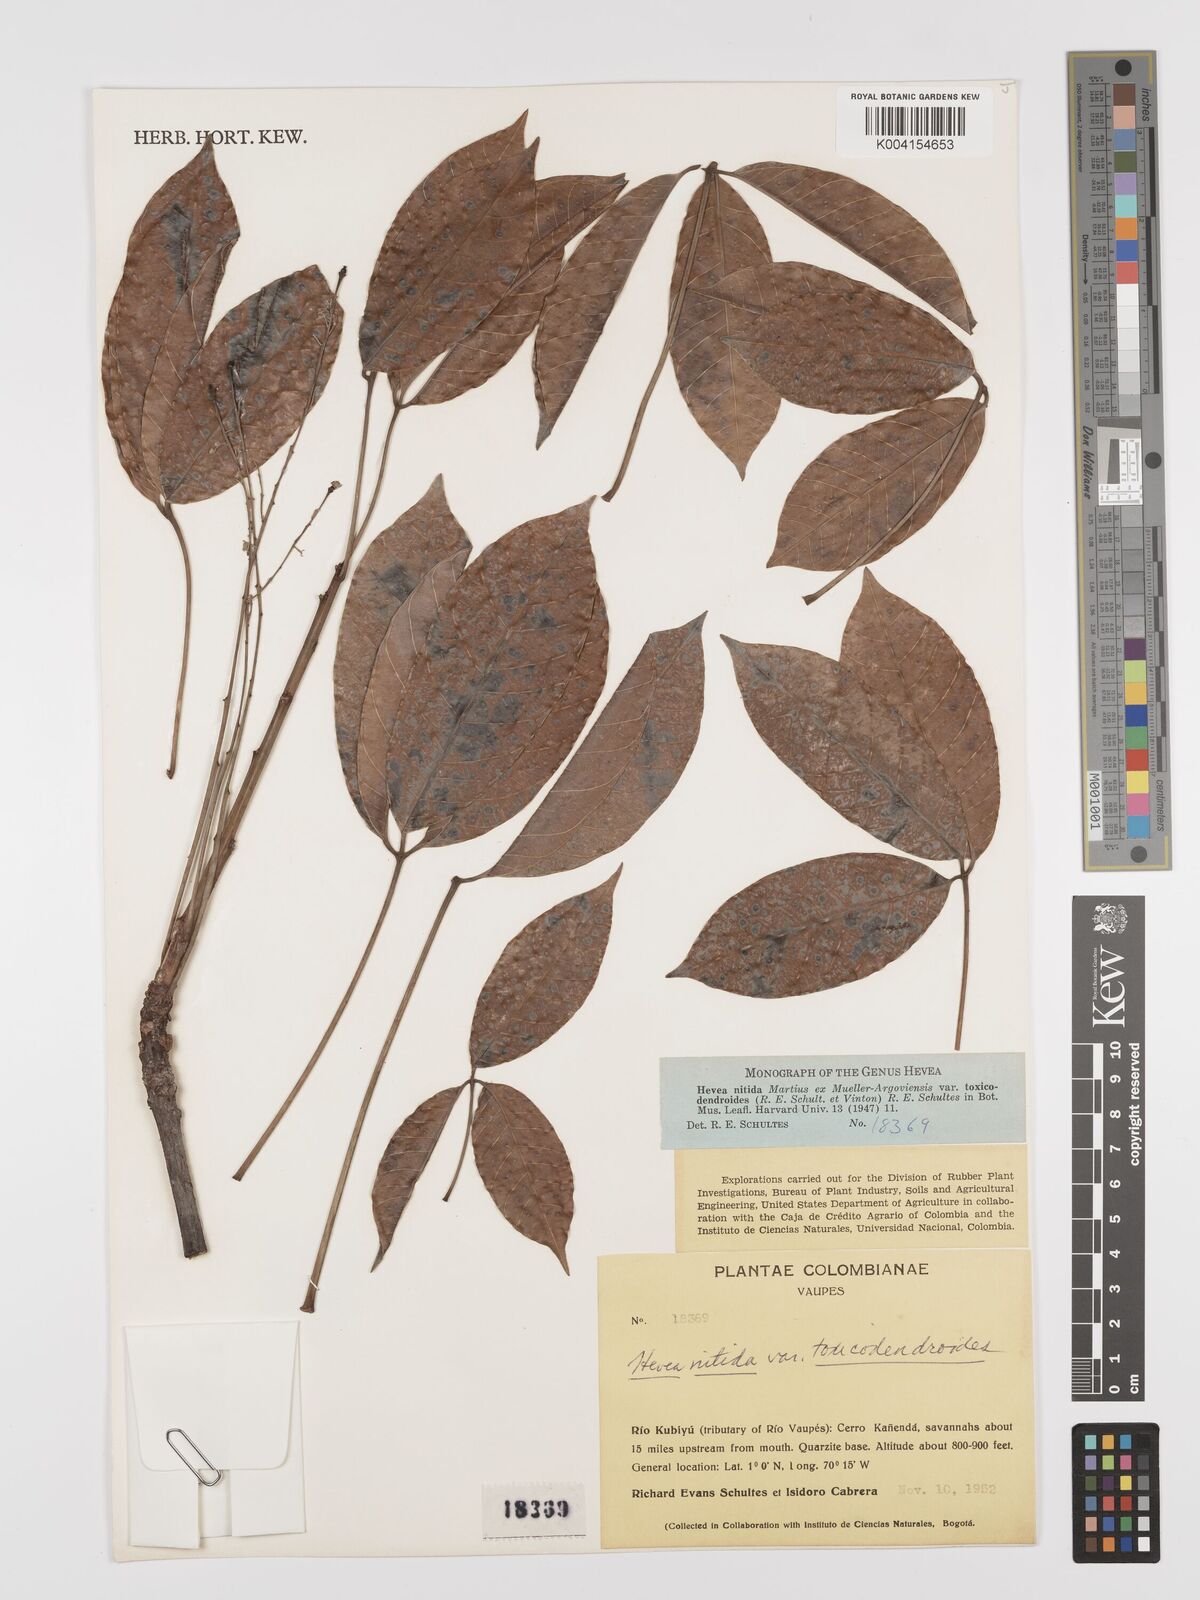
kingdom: Plantae
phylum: Tracheophyta
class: Magnoliopsida
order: Malpighiales
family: Euphorbiaceae
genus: Hevea
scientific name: Hevea nitida
